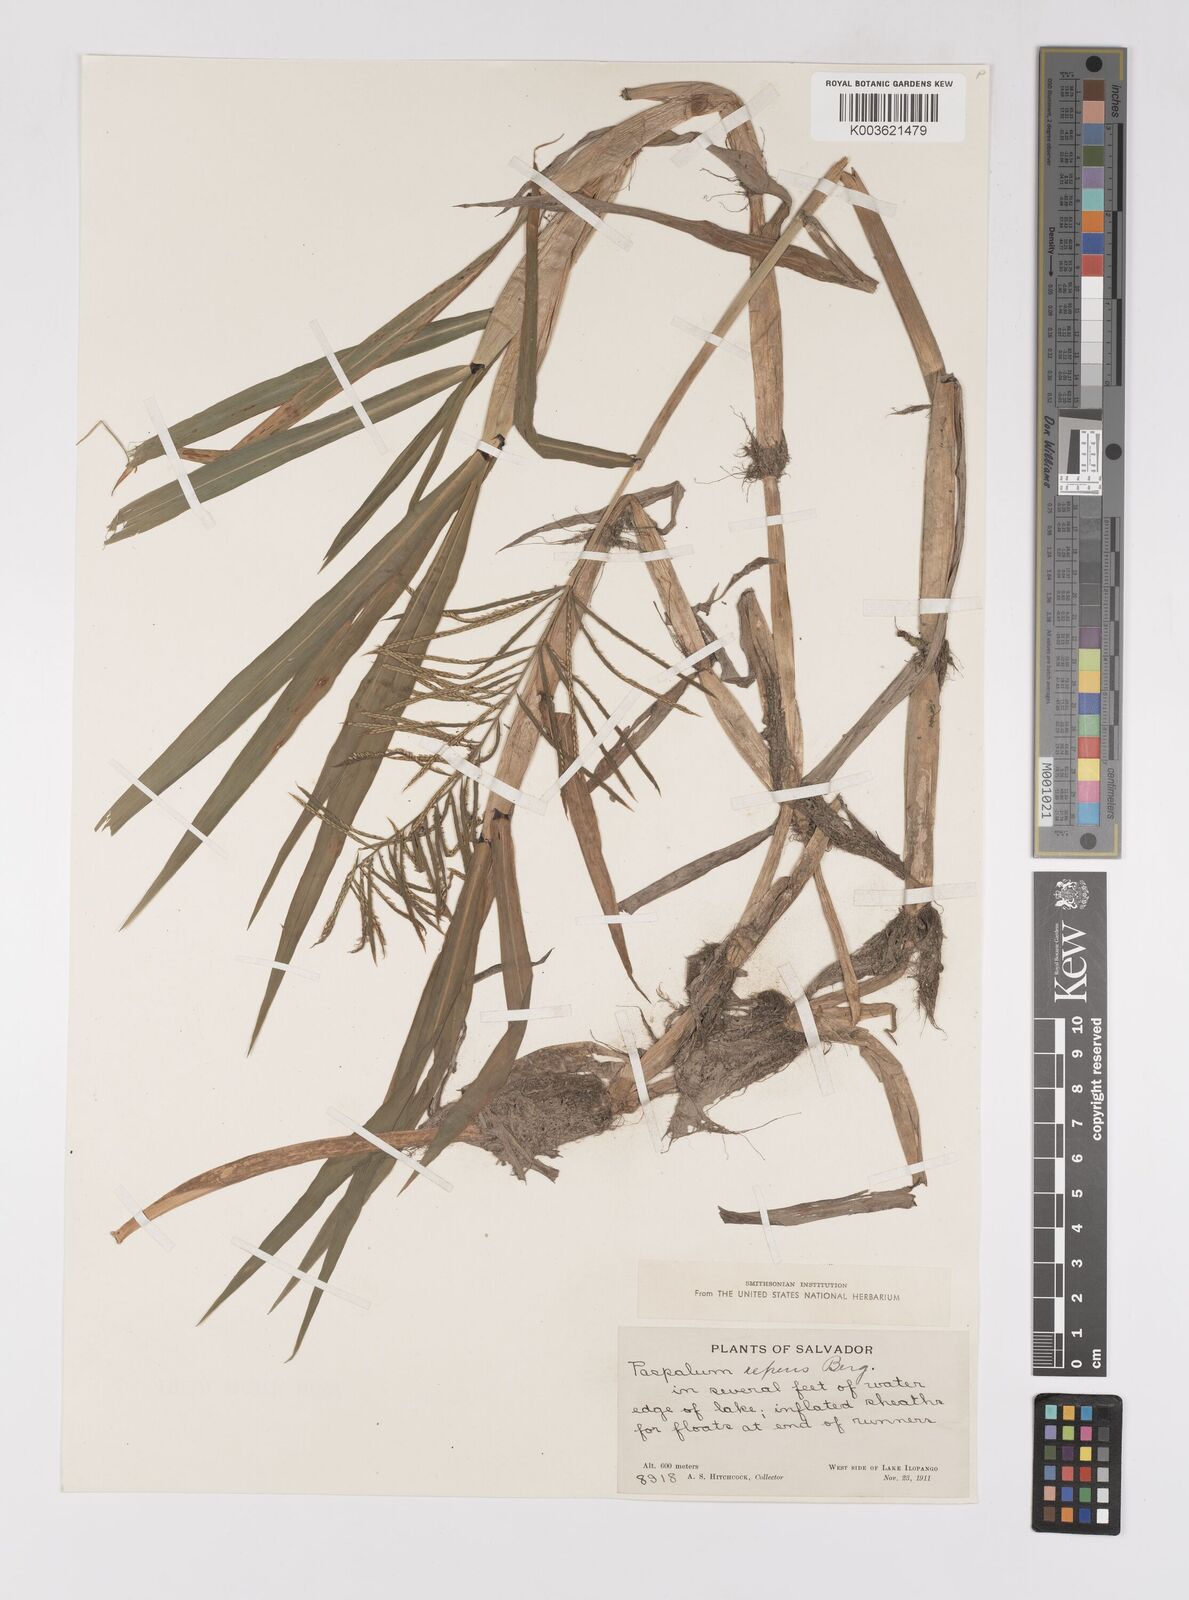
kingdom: Plantae
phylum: Tracheophyta
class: Liliopsida
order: Poales
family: Poaceae
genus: Paspalum
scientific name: Paspalum repens
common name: Water paspalum
